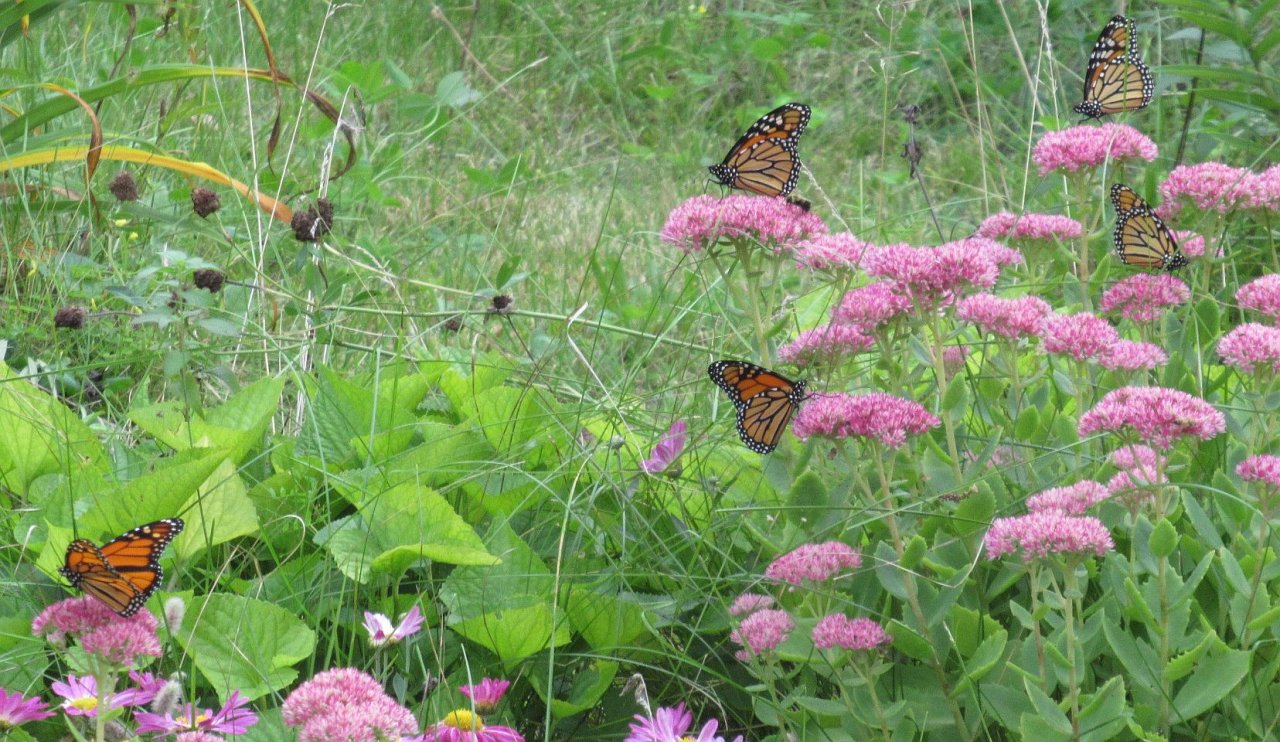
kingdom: Animalia
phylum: Arthropoda
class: Insecta
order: Lepidoptera
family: Nymphalidae
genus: Danaus
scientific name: Danaus plexippus
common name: Monarch
